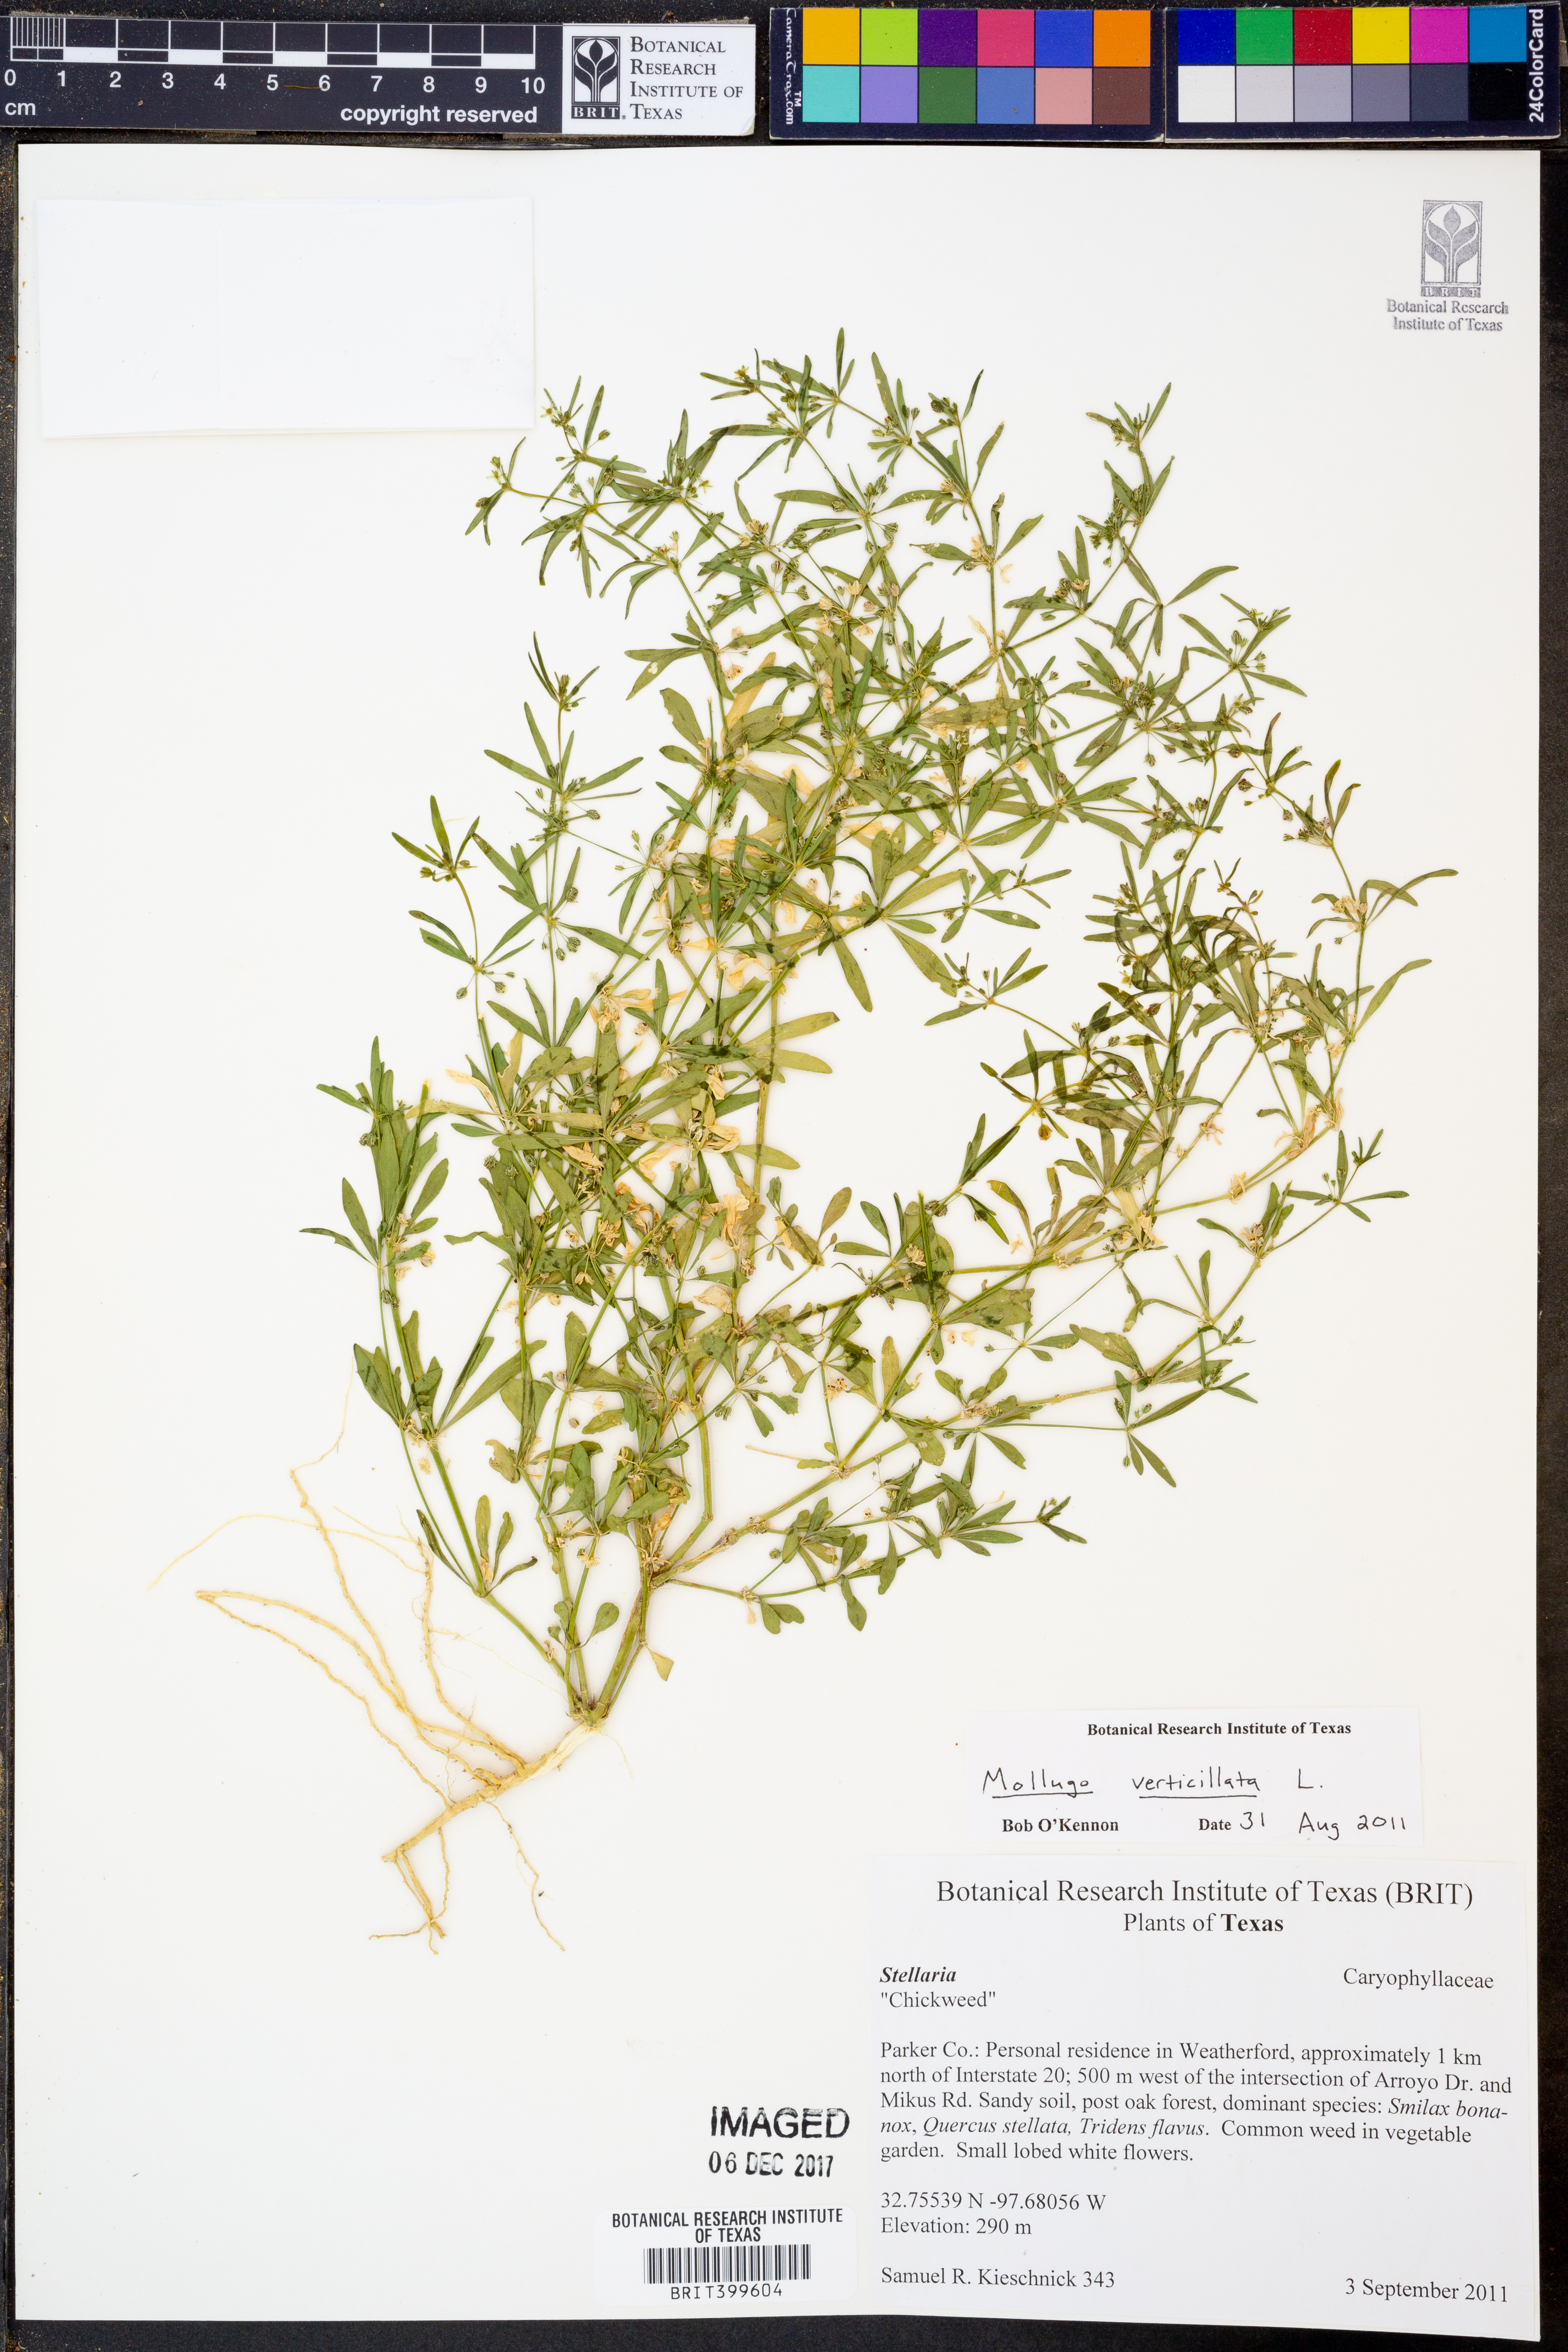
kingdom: Plantae
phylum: Tracheophyta
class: Magnoliopsida
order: Caryophyllales
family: Molluginaceae
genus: Mollugo
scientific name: Mollugo verticillata
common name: Green carpetweed
